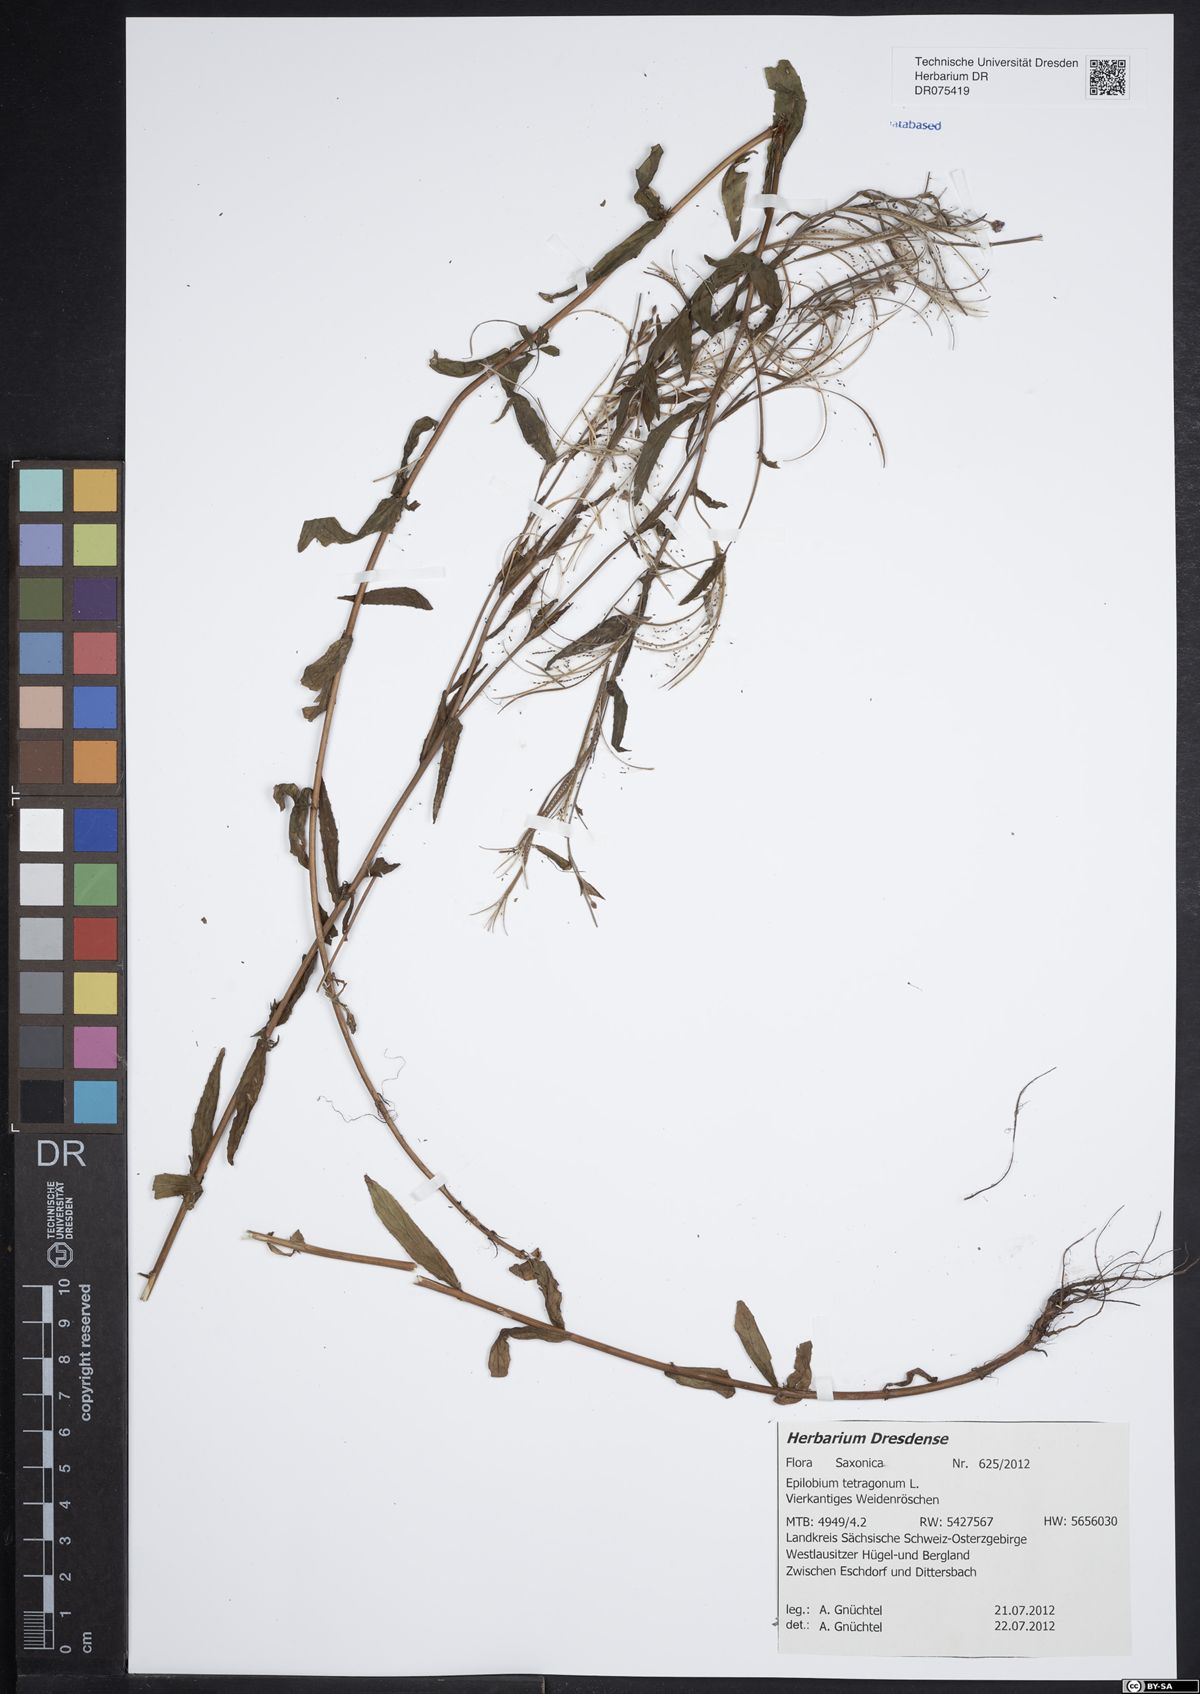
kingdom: Plantae
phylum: Tracheophyta
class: Magnoliopsida
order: Myrtales
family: Onagraceae
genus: Epilobium
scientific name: Epilobium tetragonum
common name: Square-stemmed willowherb
